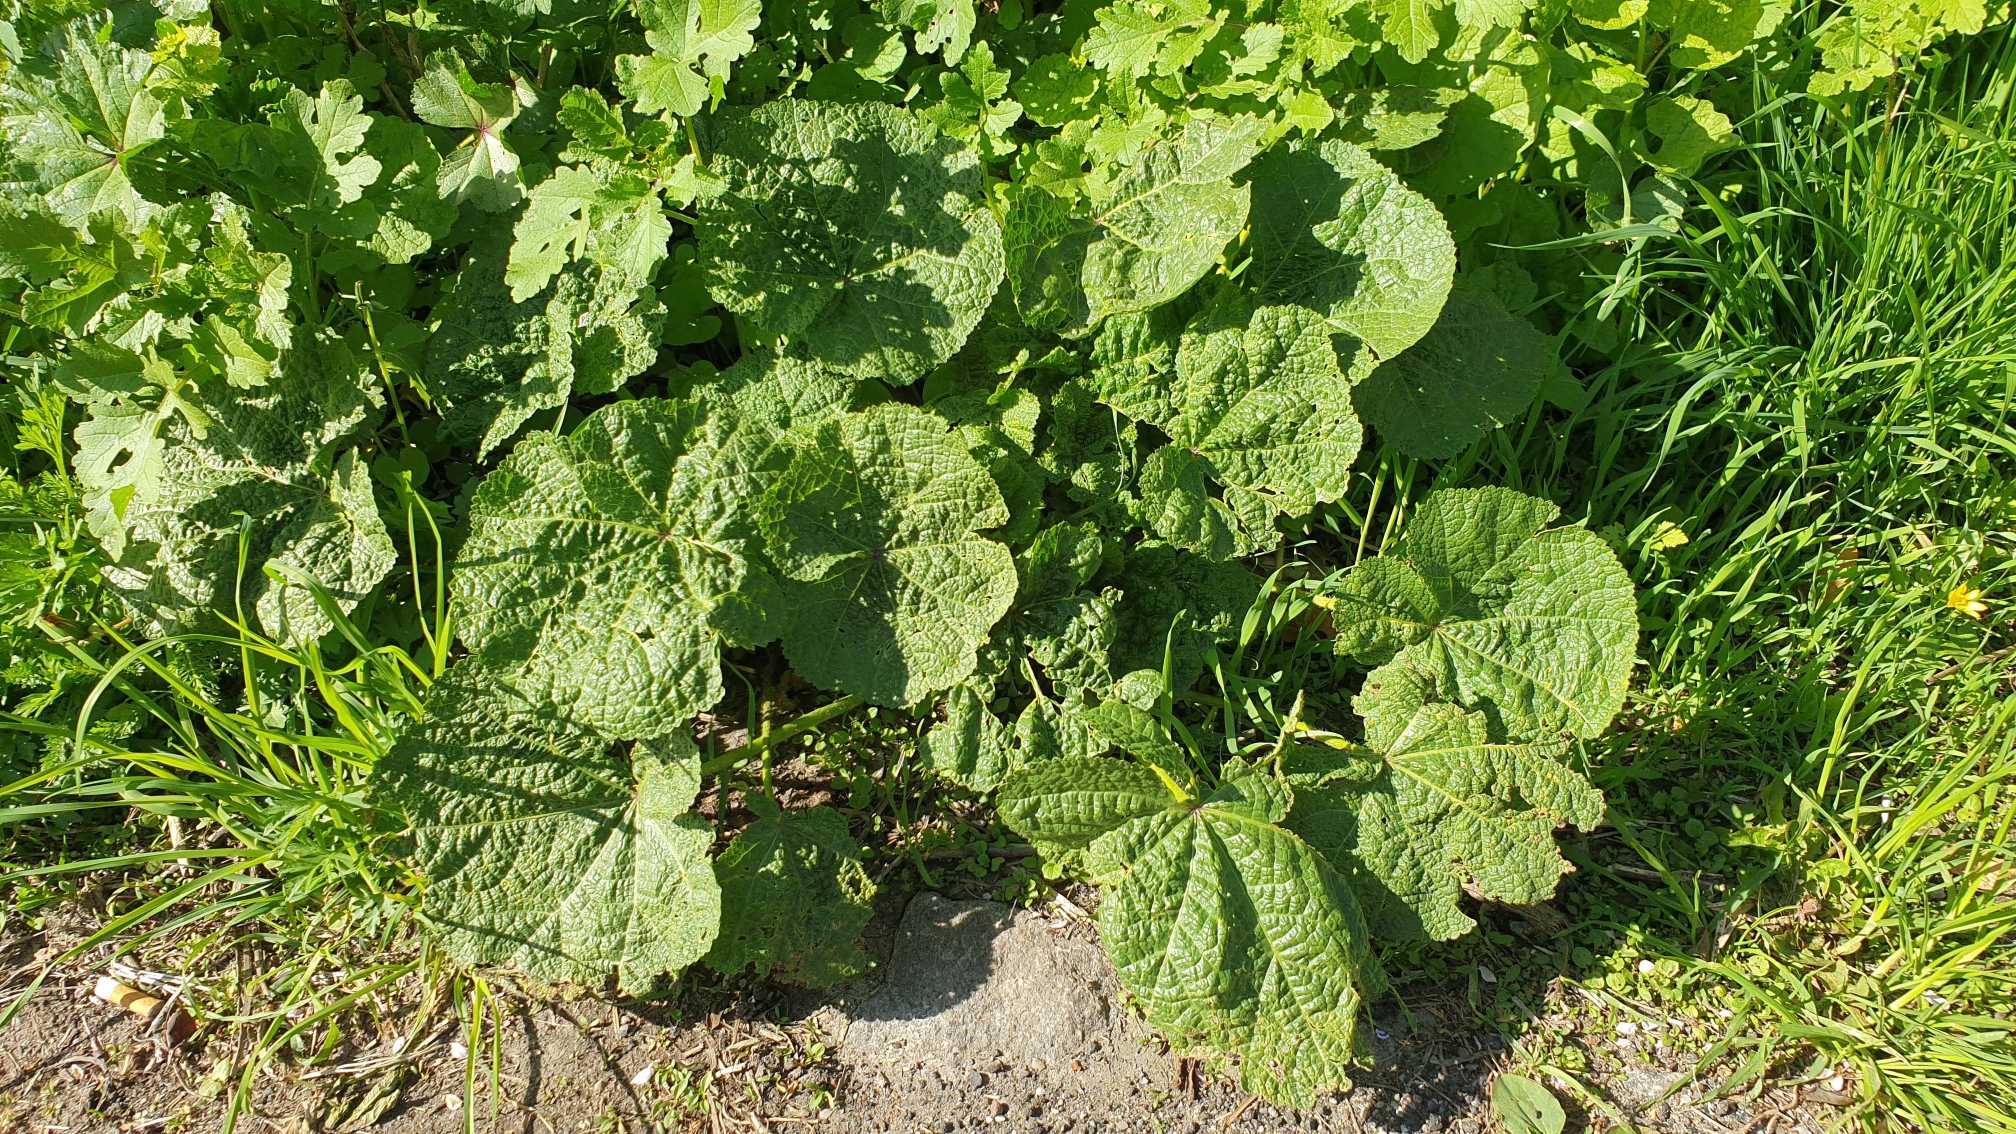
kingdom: Plantae
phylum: Tracheophyta
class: Magnoliopsida
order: Malvales
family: Malvaceae
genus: Alcea
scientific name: Alcea rosea
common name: Have-stokrose
